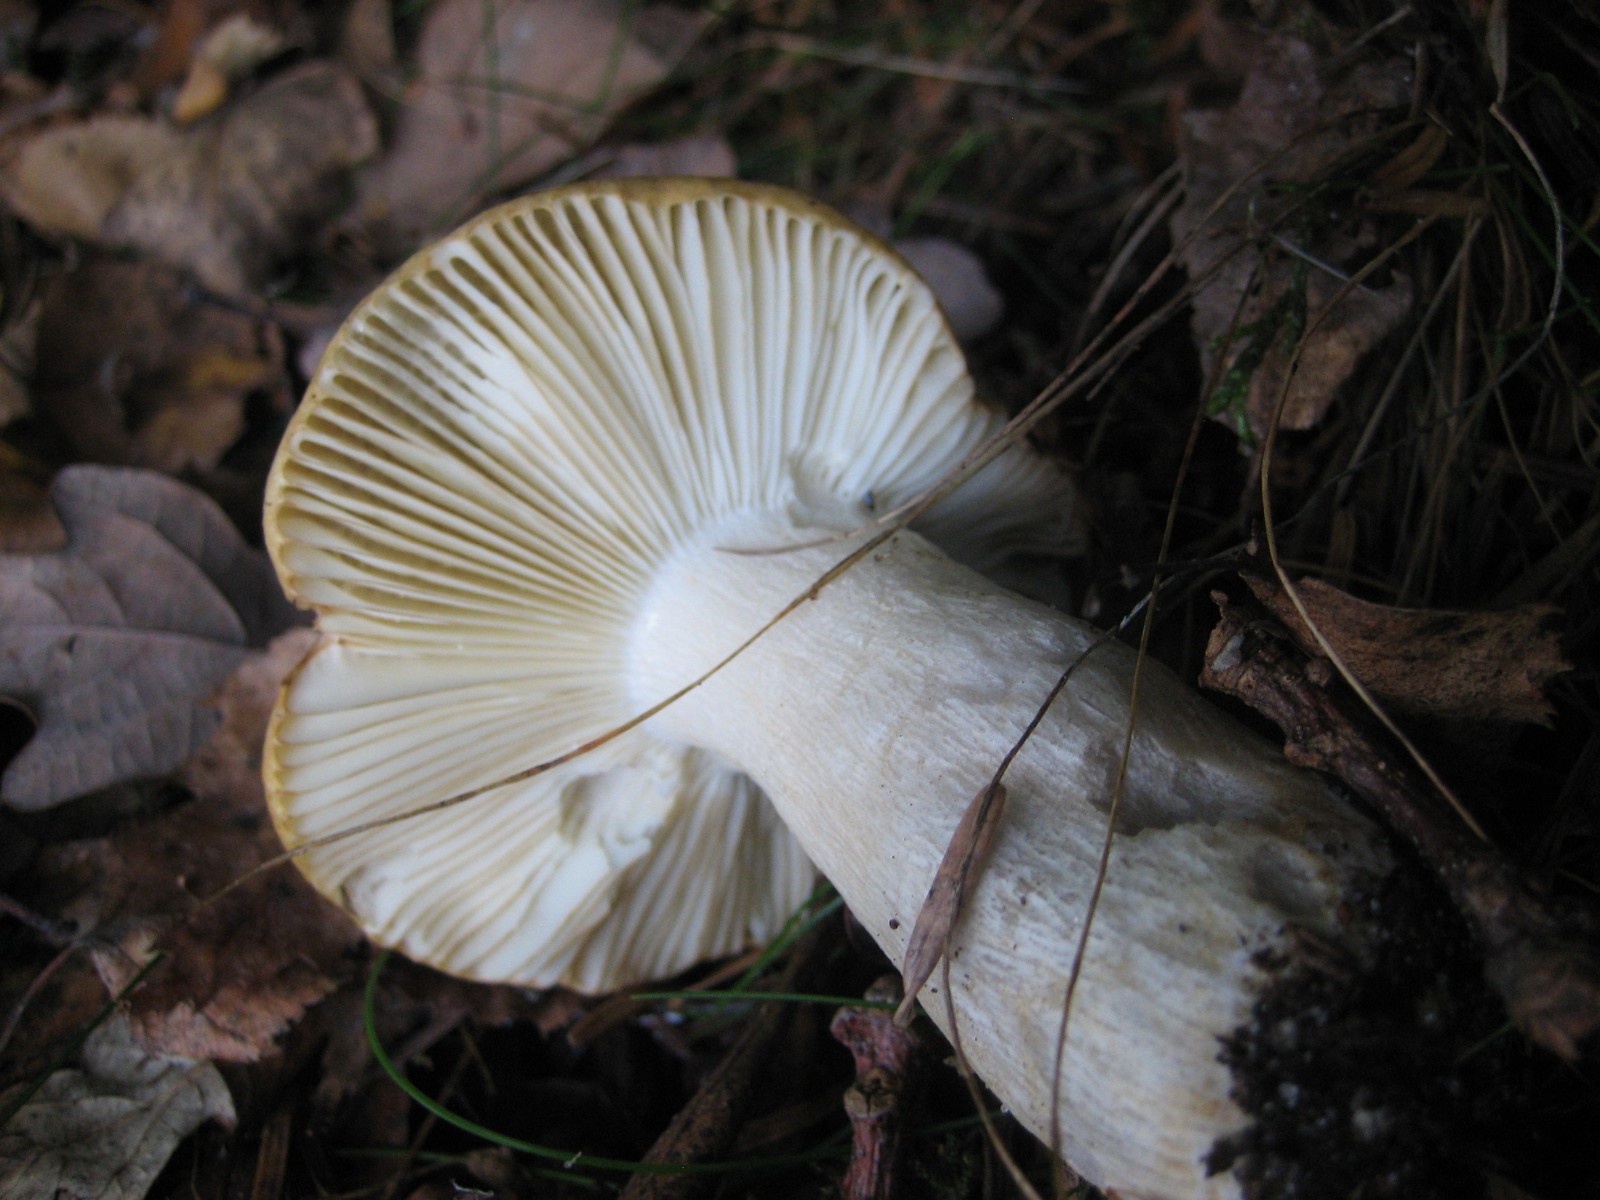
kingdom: Fungi
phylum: Basidiomycota
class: Agaricomycetes
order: Russulales
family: Russulaceae
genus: Russula
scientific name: Russula ochroleuca
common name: okkergul skørhat
